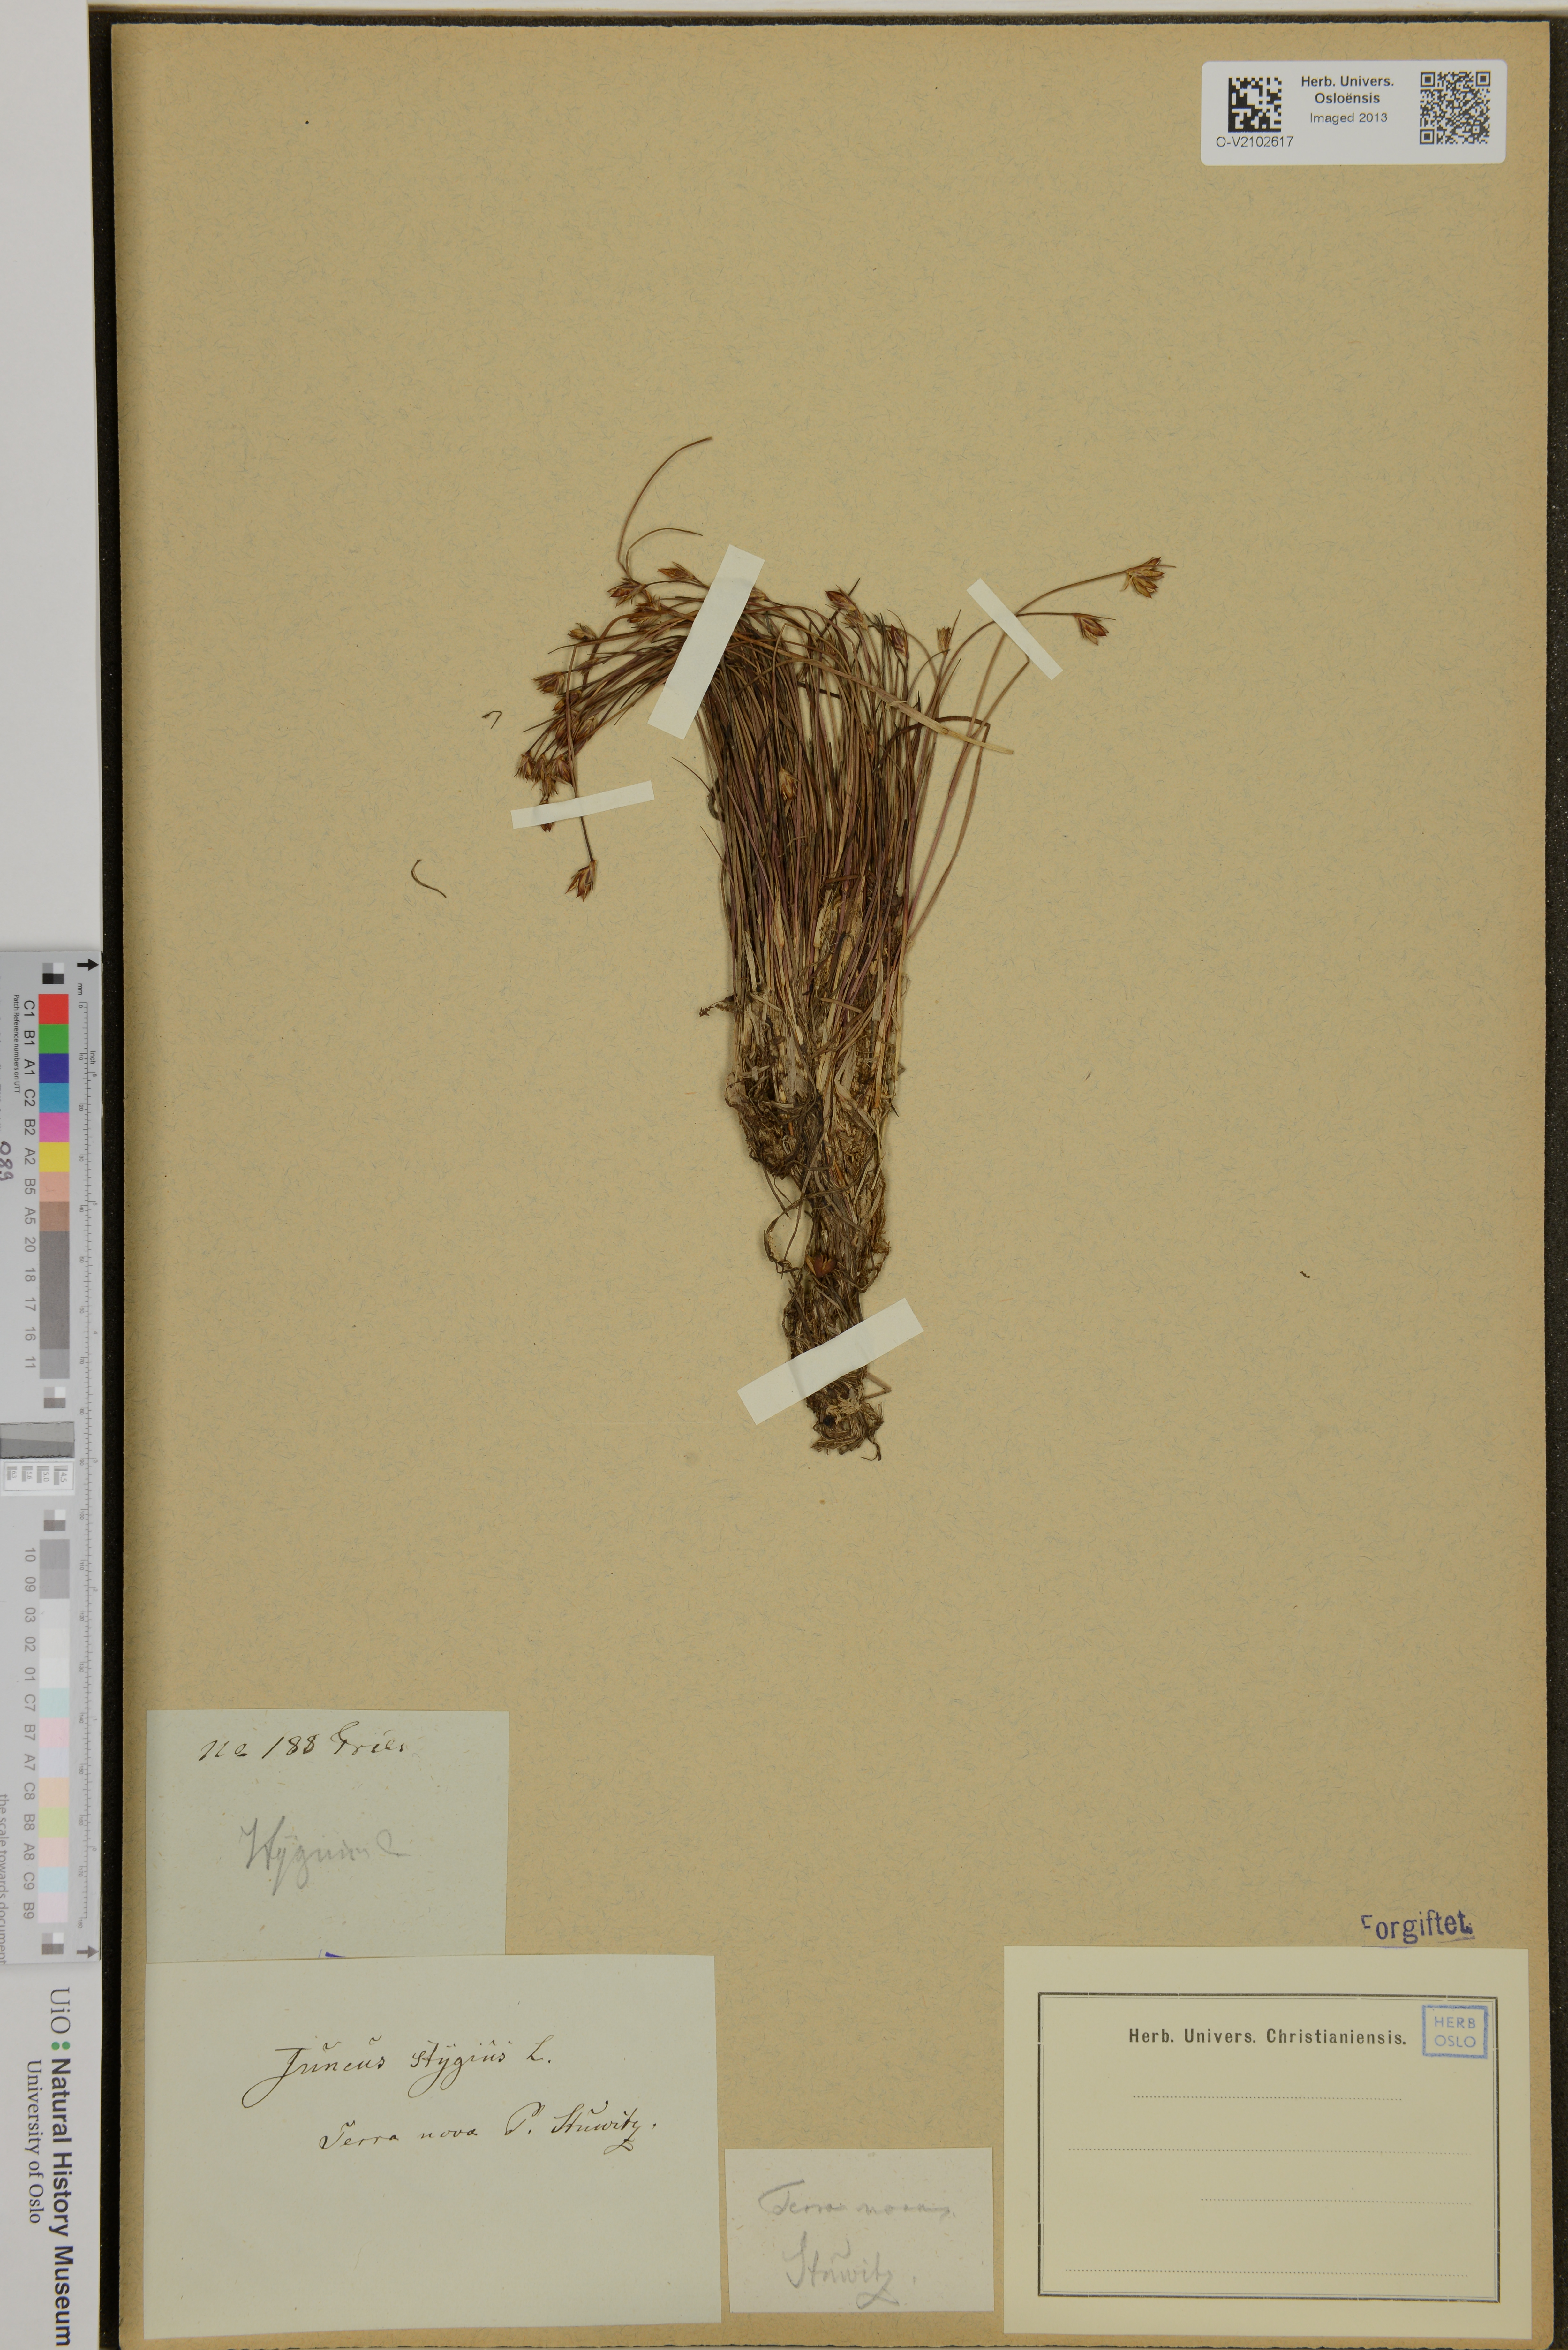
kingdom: Plantae
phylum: Tracheophyta
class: Liliopsida
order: Poales
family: Juncaceae
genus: Juncus
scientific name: Juncus stygius
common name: Bog rush
